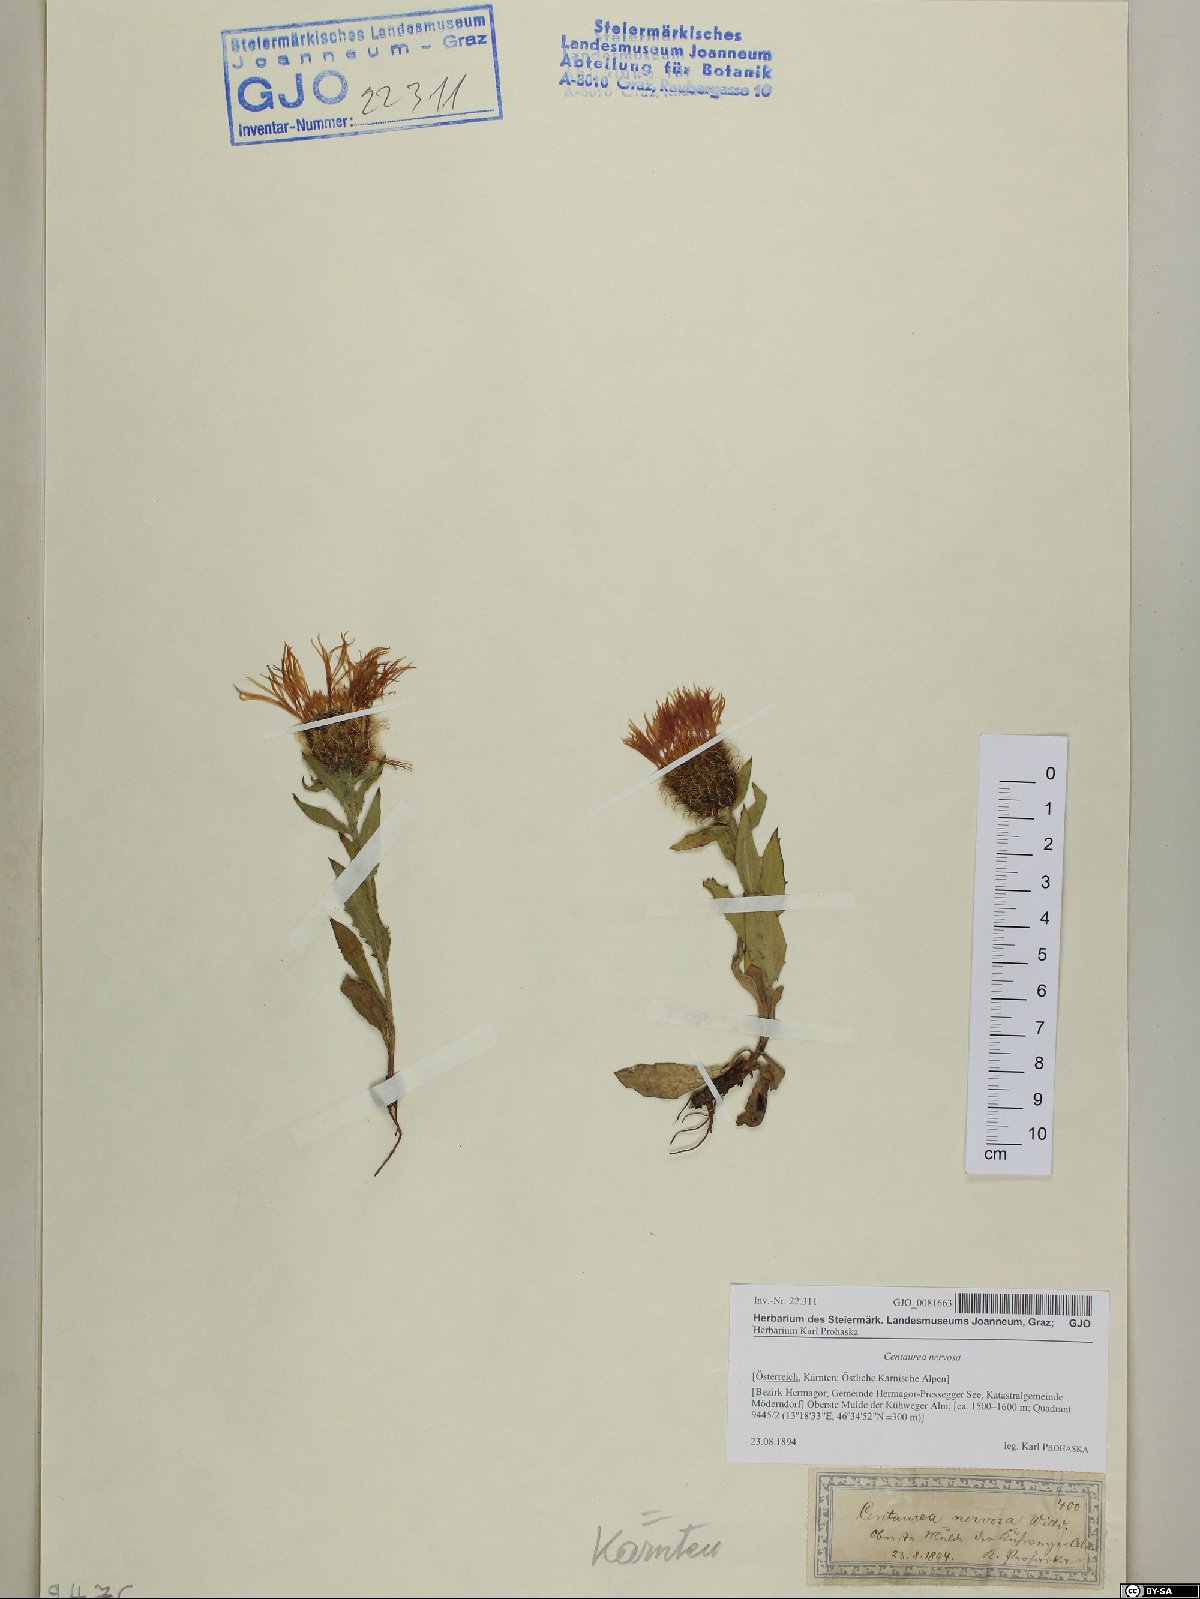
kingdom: Plantae
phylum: Tracheophyta
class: Magnoliopsida
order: Asterales
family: Asteraceae
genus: Centaurea
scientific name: Centaurea nervosa
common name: Singleflower knapweed
